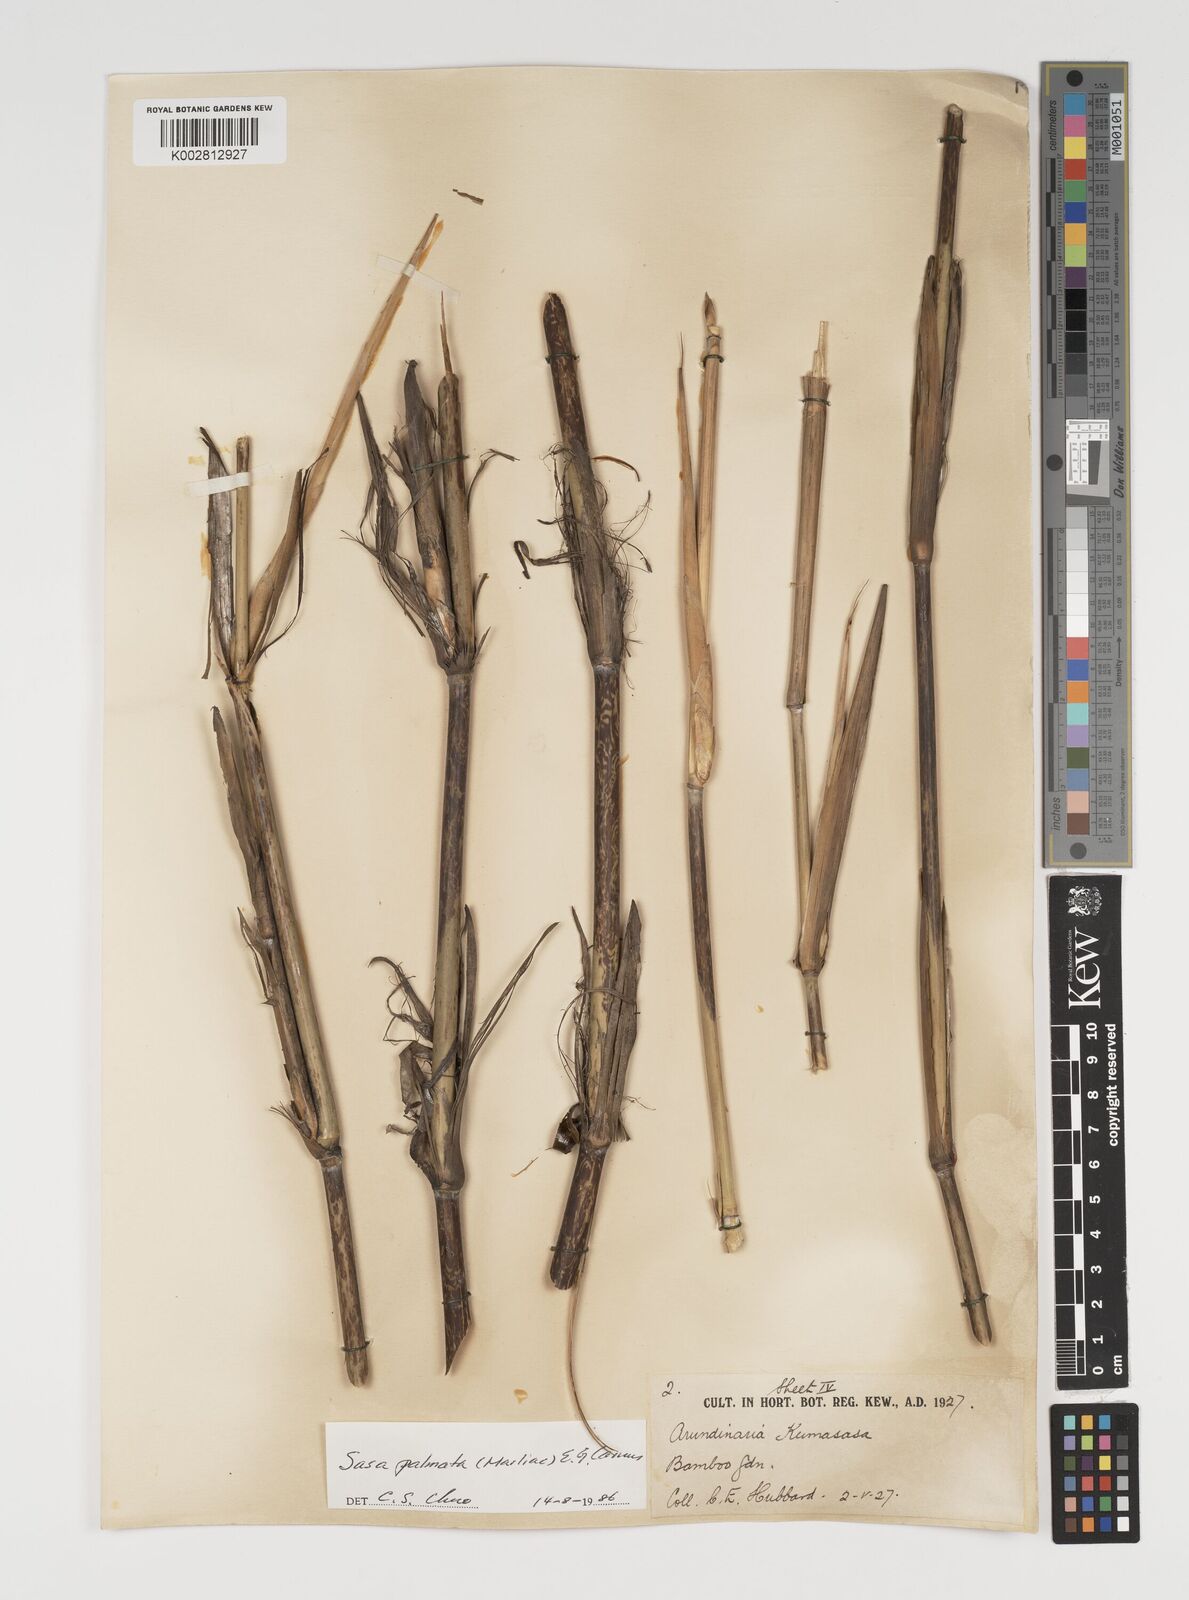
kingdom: Plantae
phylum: Tracheophyta
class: Liliopsida
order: Poales
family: Poaceae
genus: Sasa
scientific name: Sasa palmata
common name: Broad-leaved bamboo
